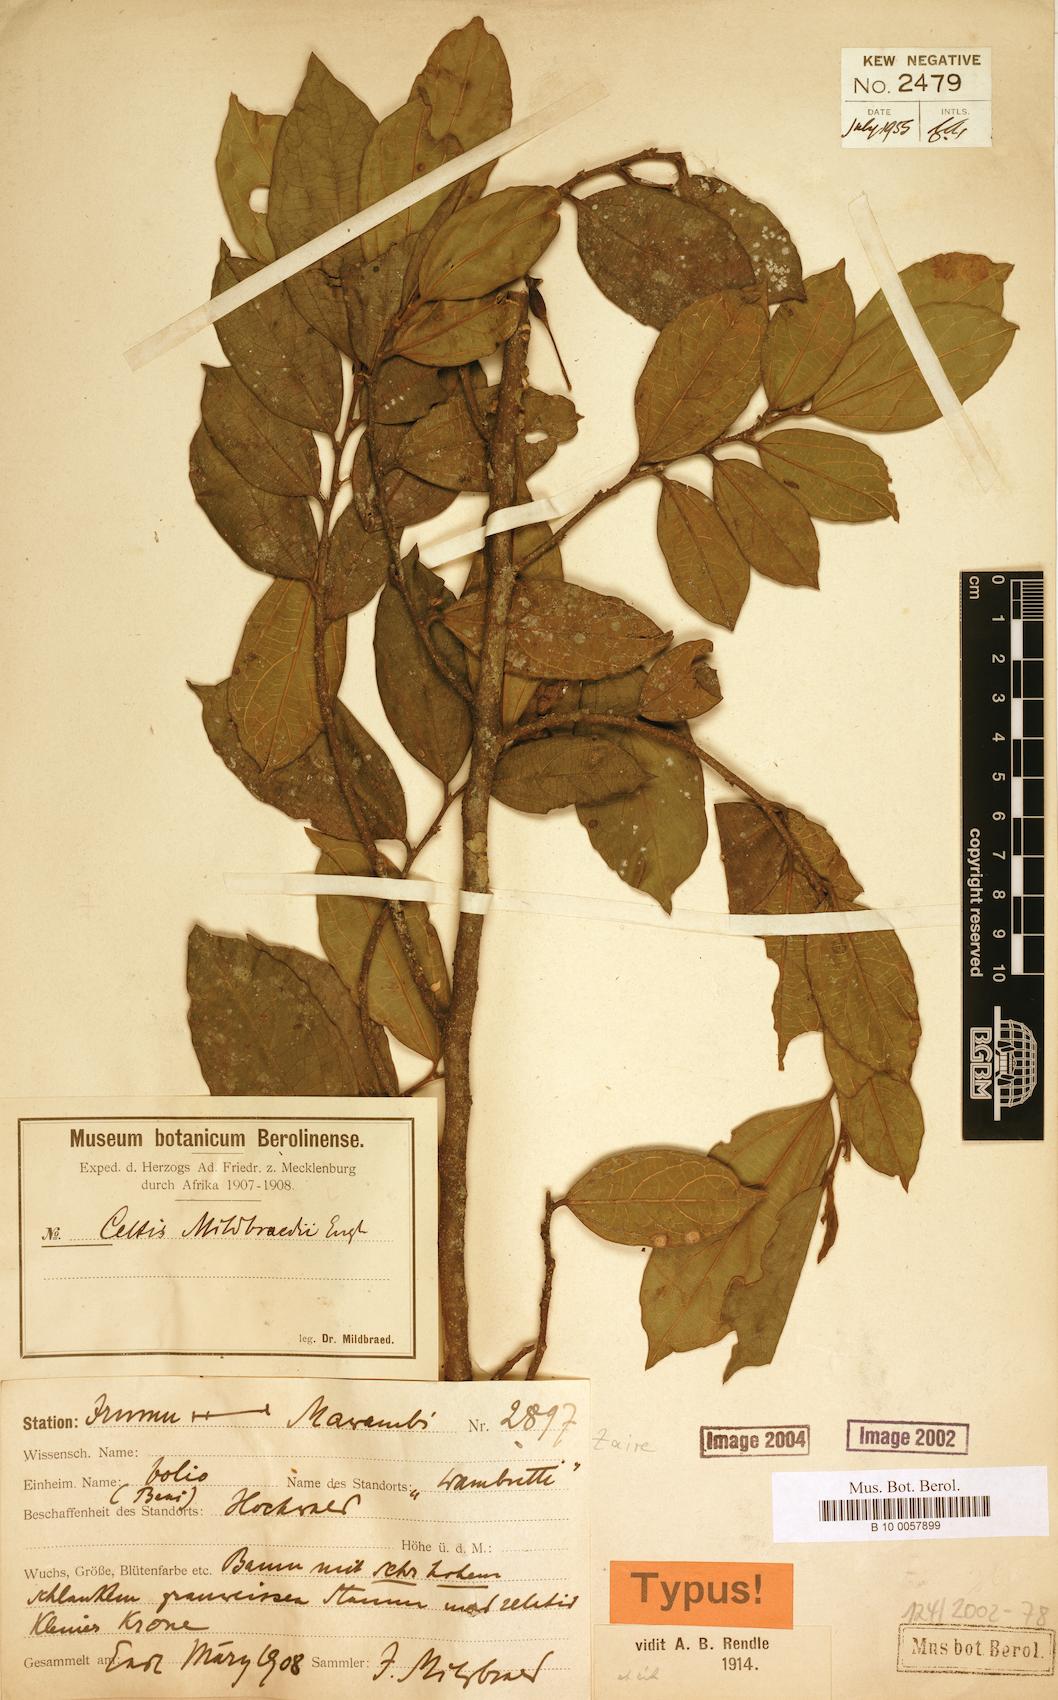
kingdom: Plantae
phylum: Tracheophyta
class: Magnoliopsida
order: Rosales
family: Cannabaceae
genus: Celtis
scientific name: Celtis mildbraedii
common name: Red-fruited stinkwood
